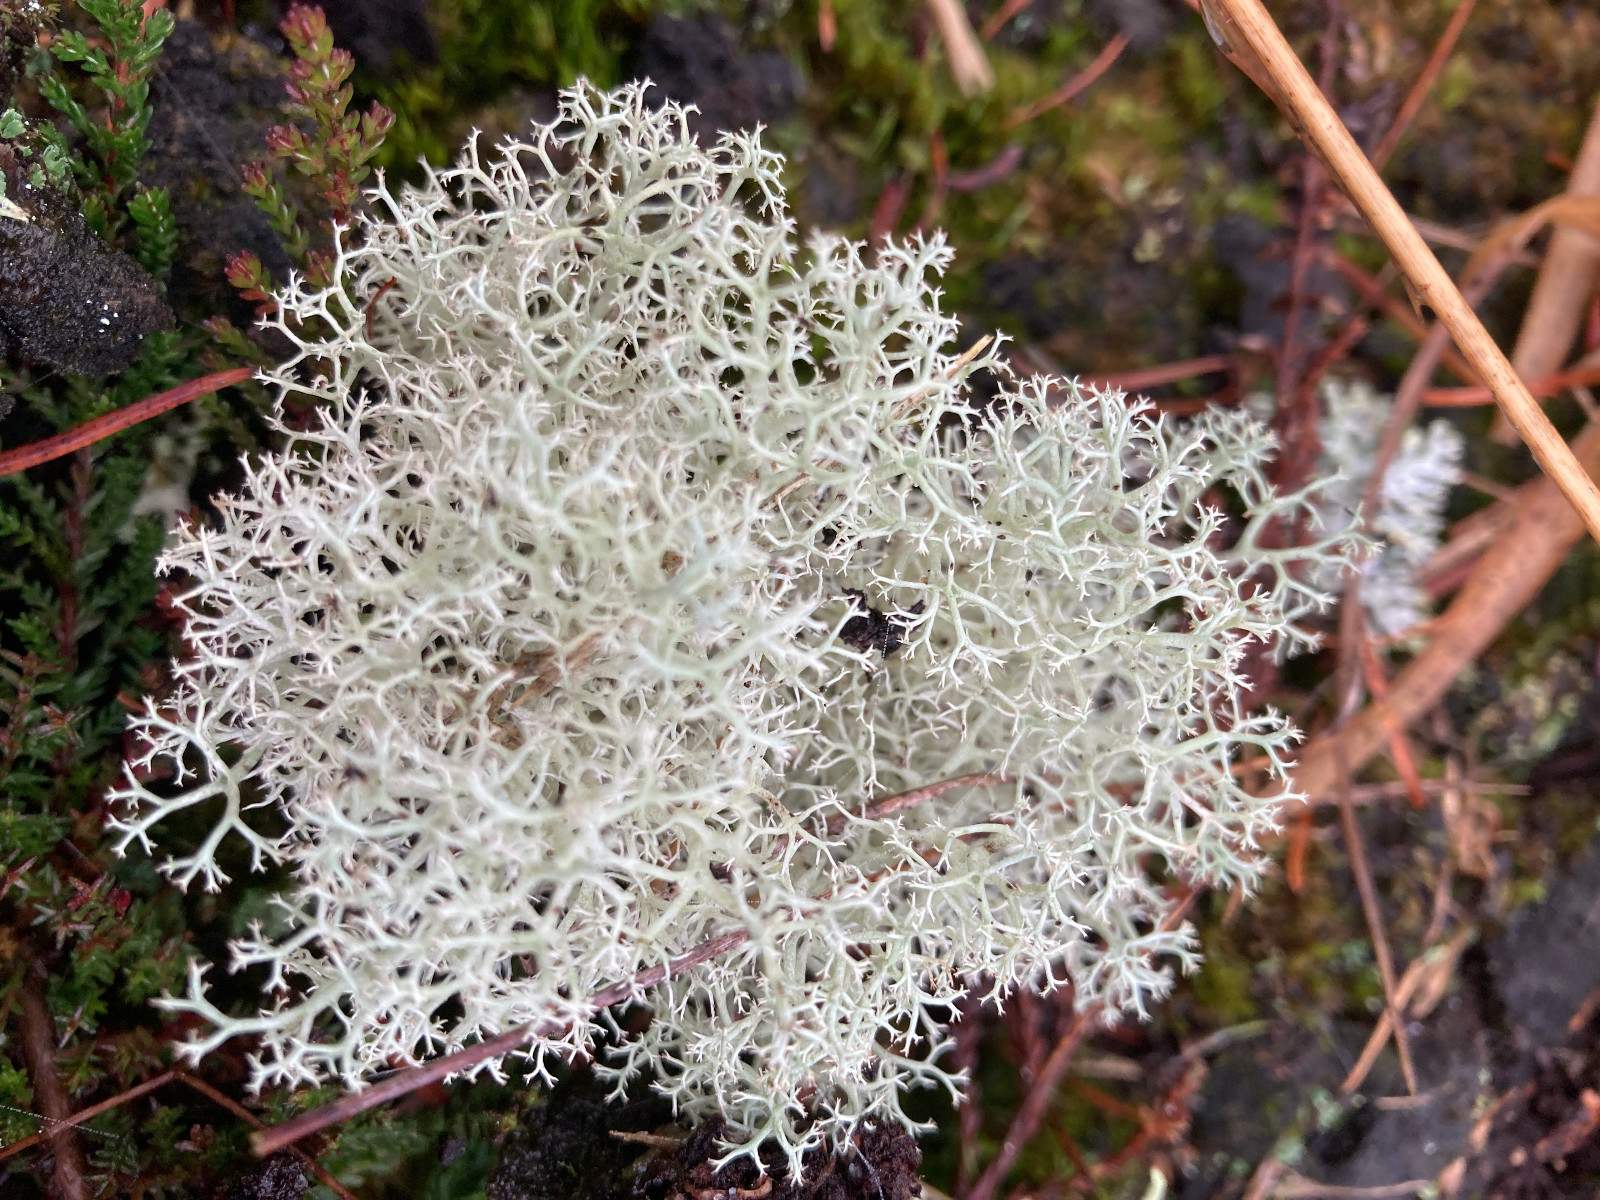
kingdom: Fungi
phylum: Ascomycota
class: Lecanoromycetes
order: Lecanorales
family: Cladoniaceae
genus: Cladonia
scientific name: Cladonia portentosa
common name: hede-rensdyrlav
